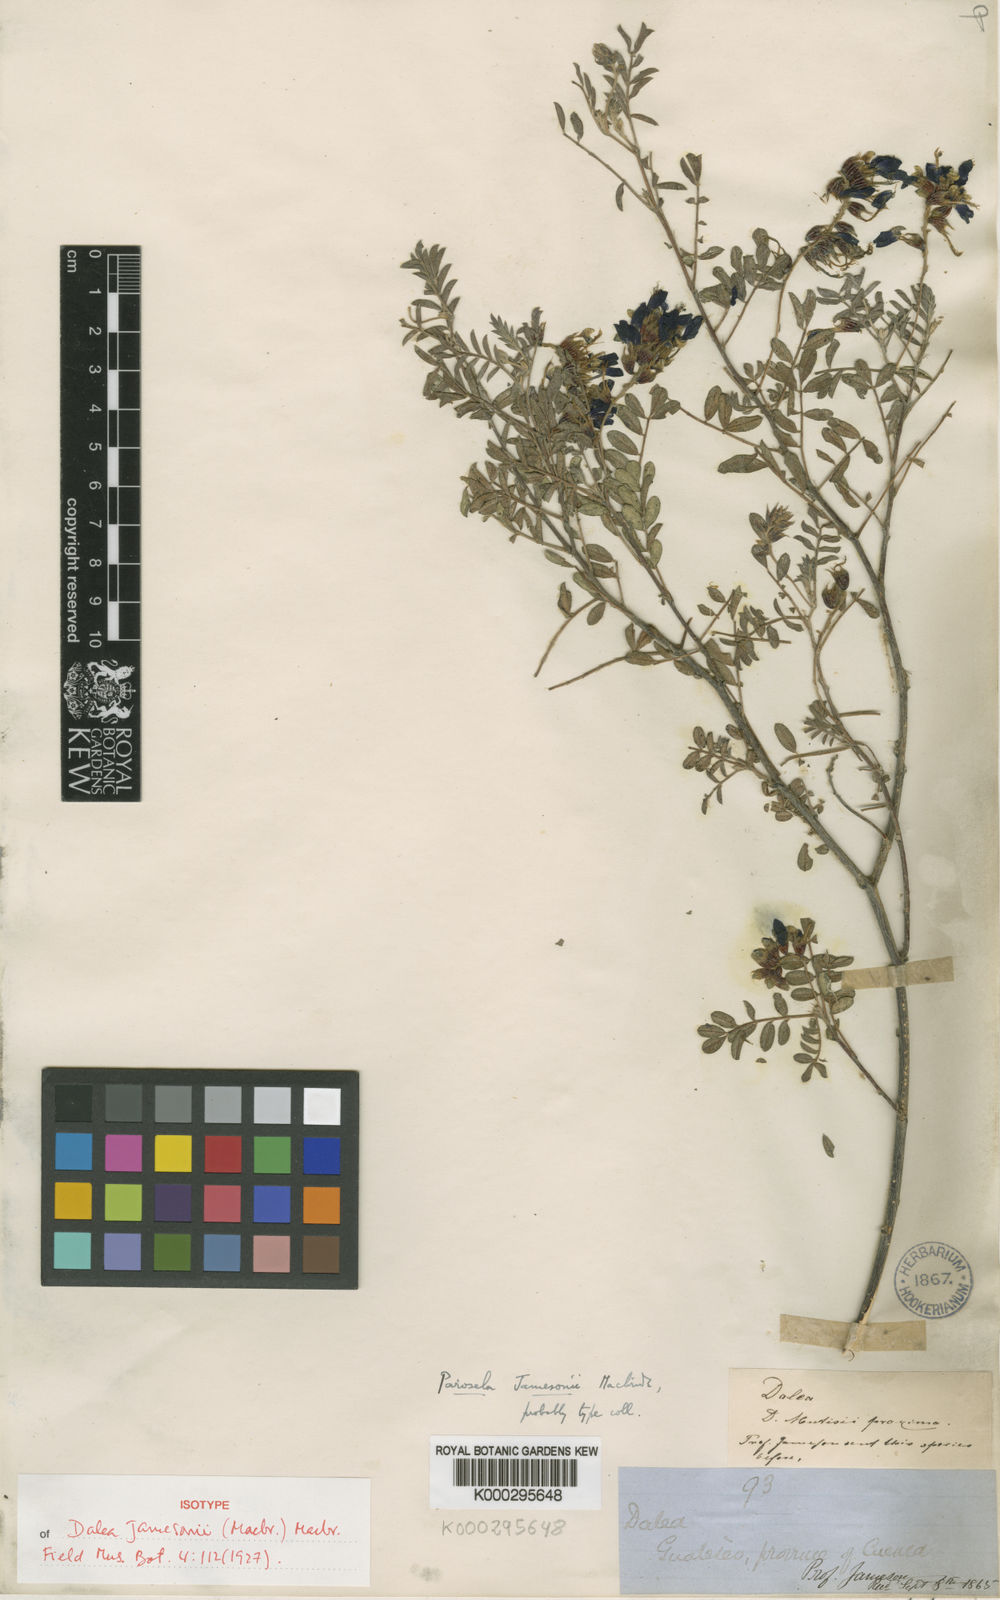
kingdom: Plantae
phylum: Tracheophyta
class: Magnoliopsida
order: Fabales
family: Fabaceae
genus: Dalea
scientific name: Dalea jamesonii
